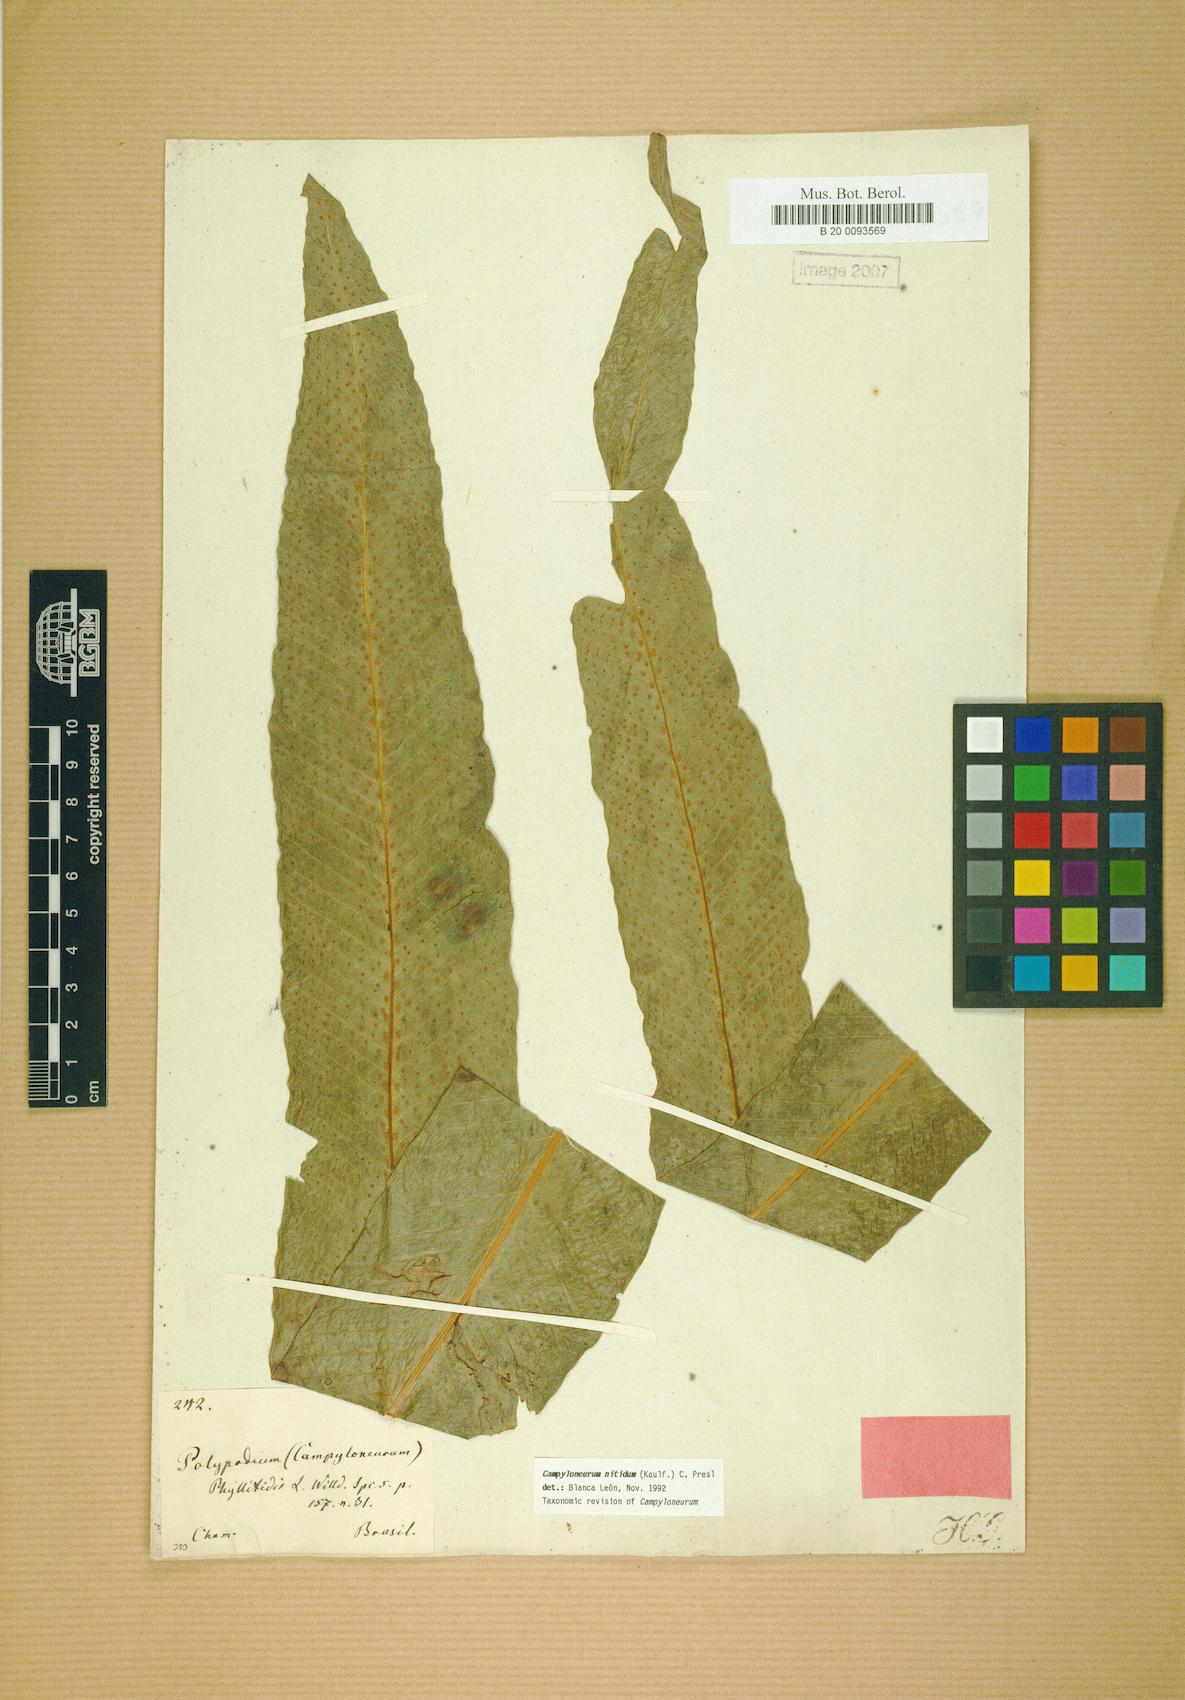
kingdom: Plantae
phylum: Tracheophyta
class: Polypodiopsida
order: Polypodiales
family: Polypodiaceae
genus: Campyloneurum
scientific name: Campyloneurum nitidum
